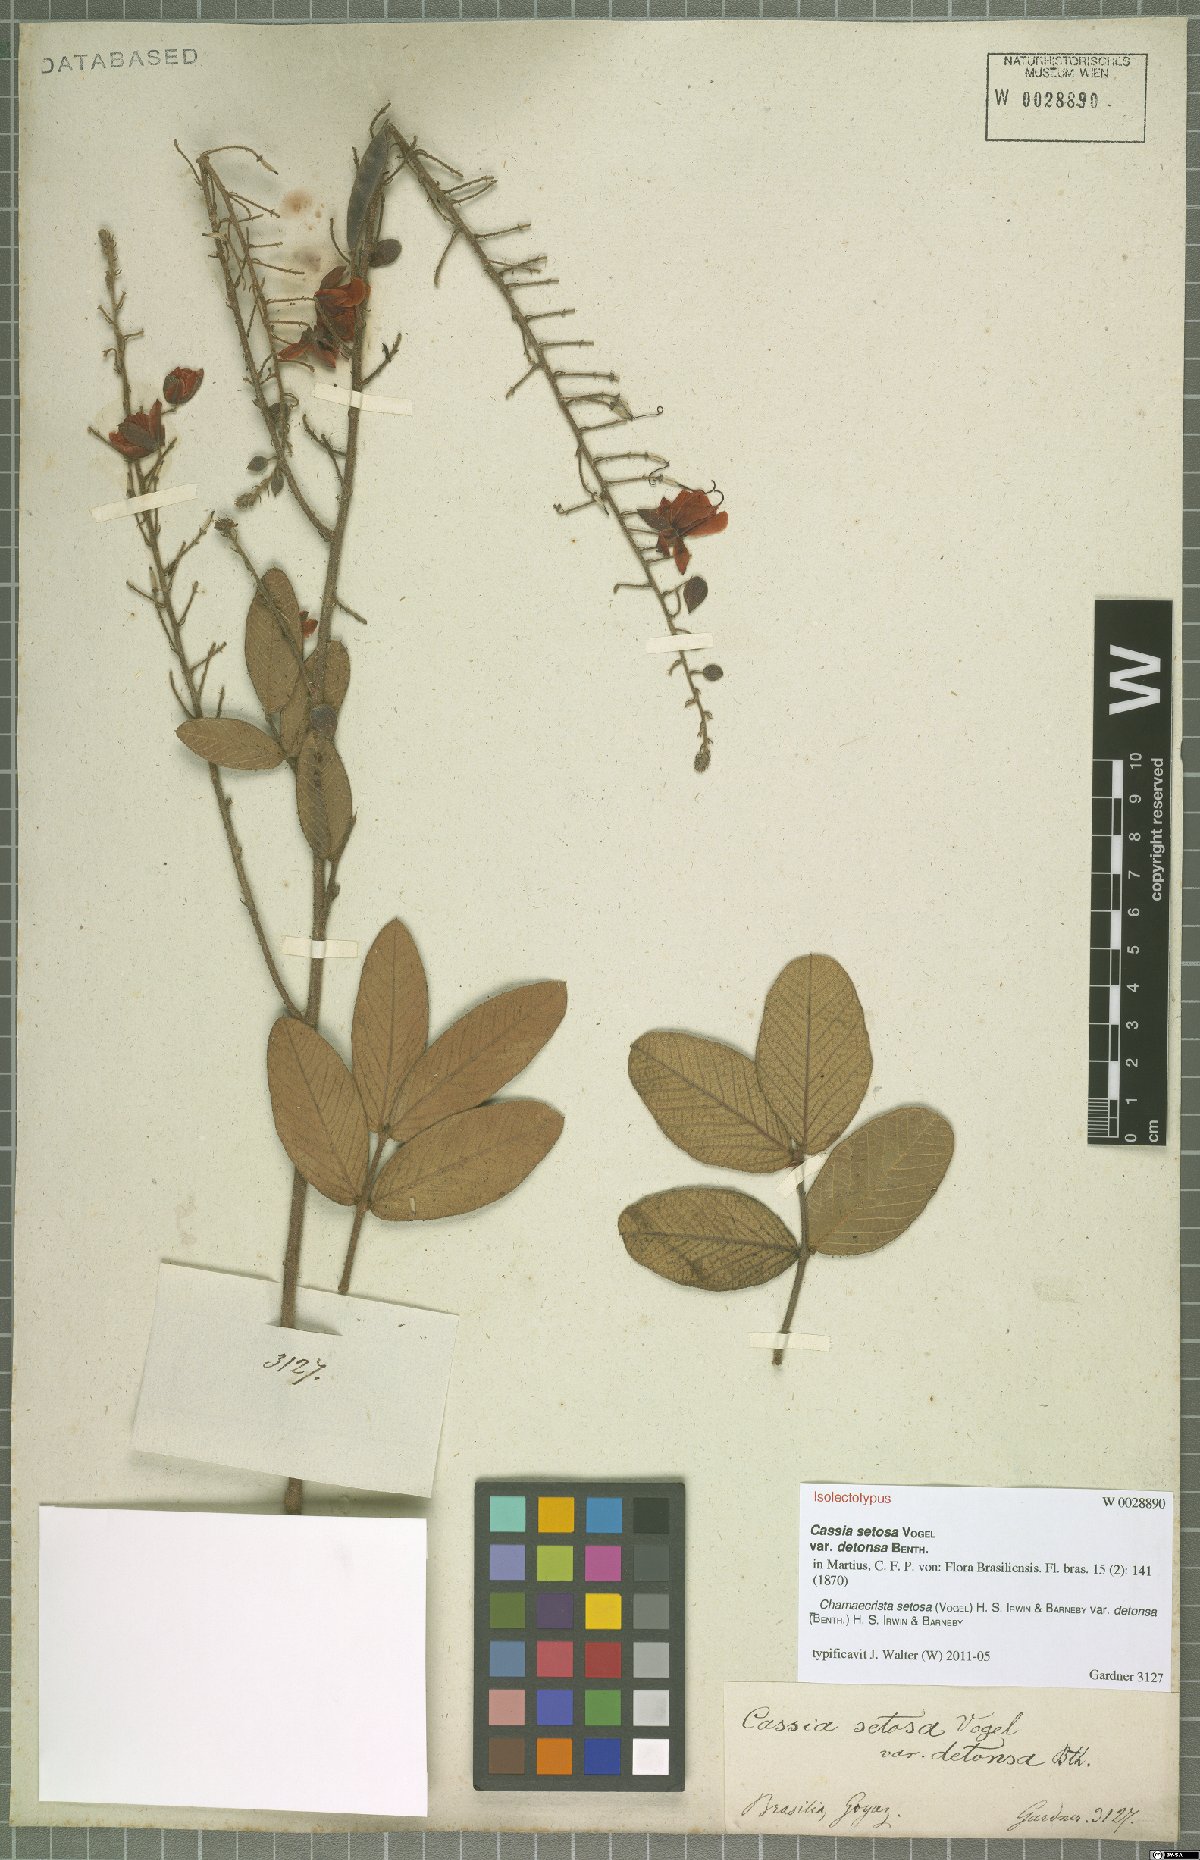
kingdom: Plantae
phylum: Tracheophyta
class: Magnoliopsida
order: Fabales
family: Fabaceae
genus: Chamaecrista
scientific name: Chamaecrista setosa
